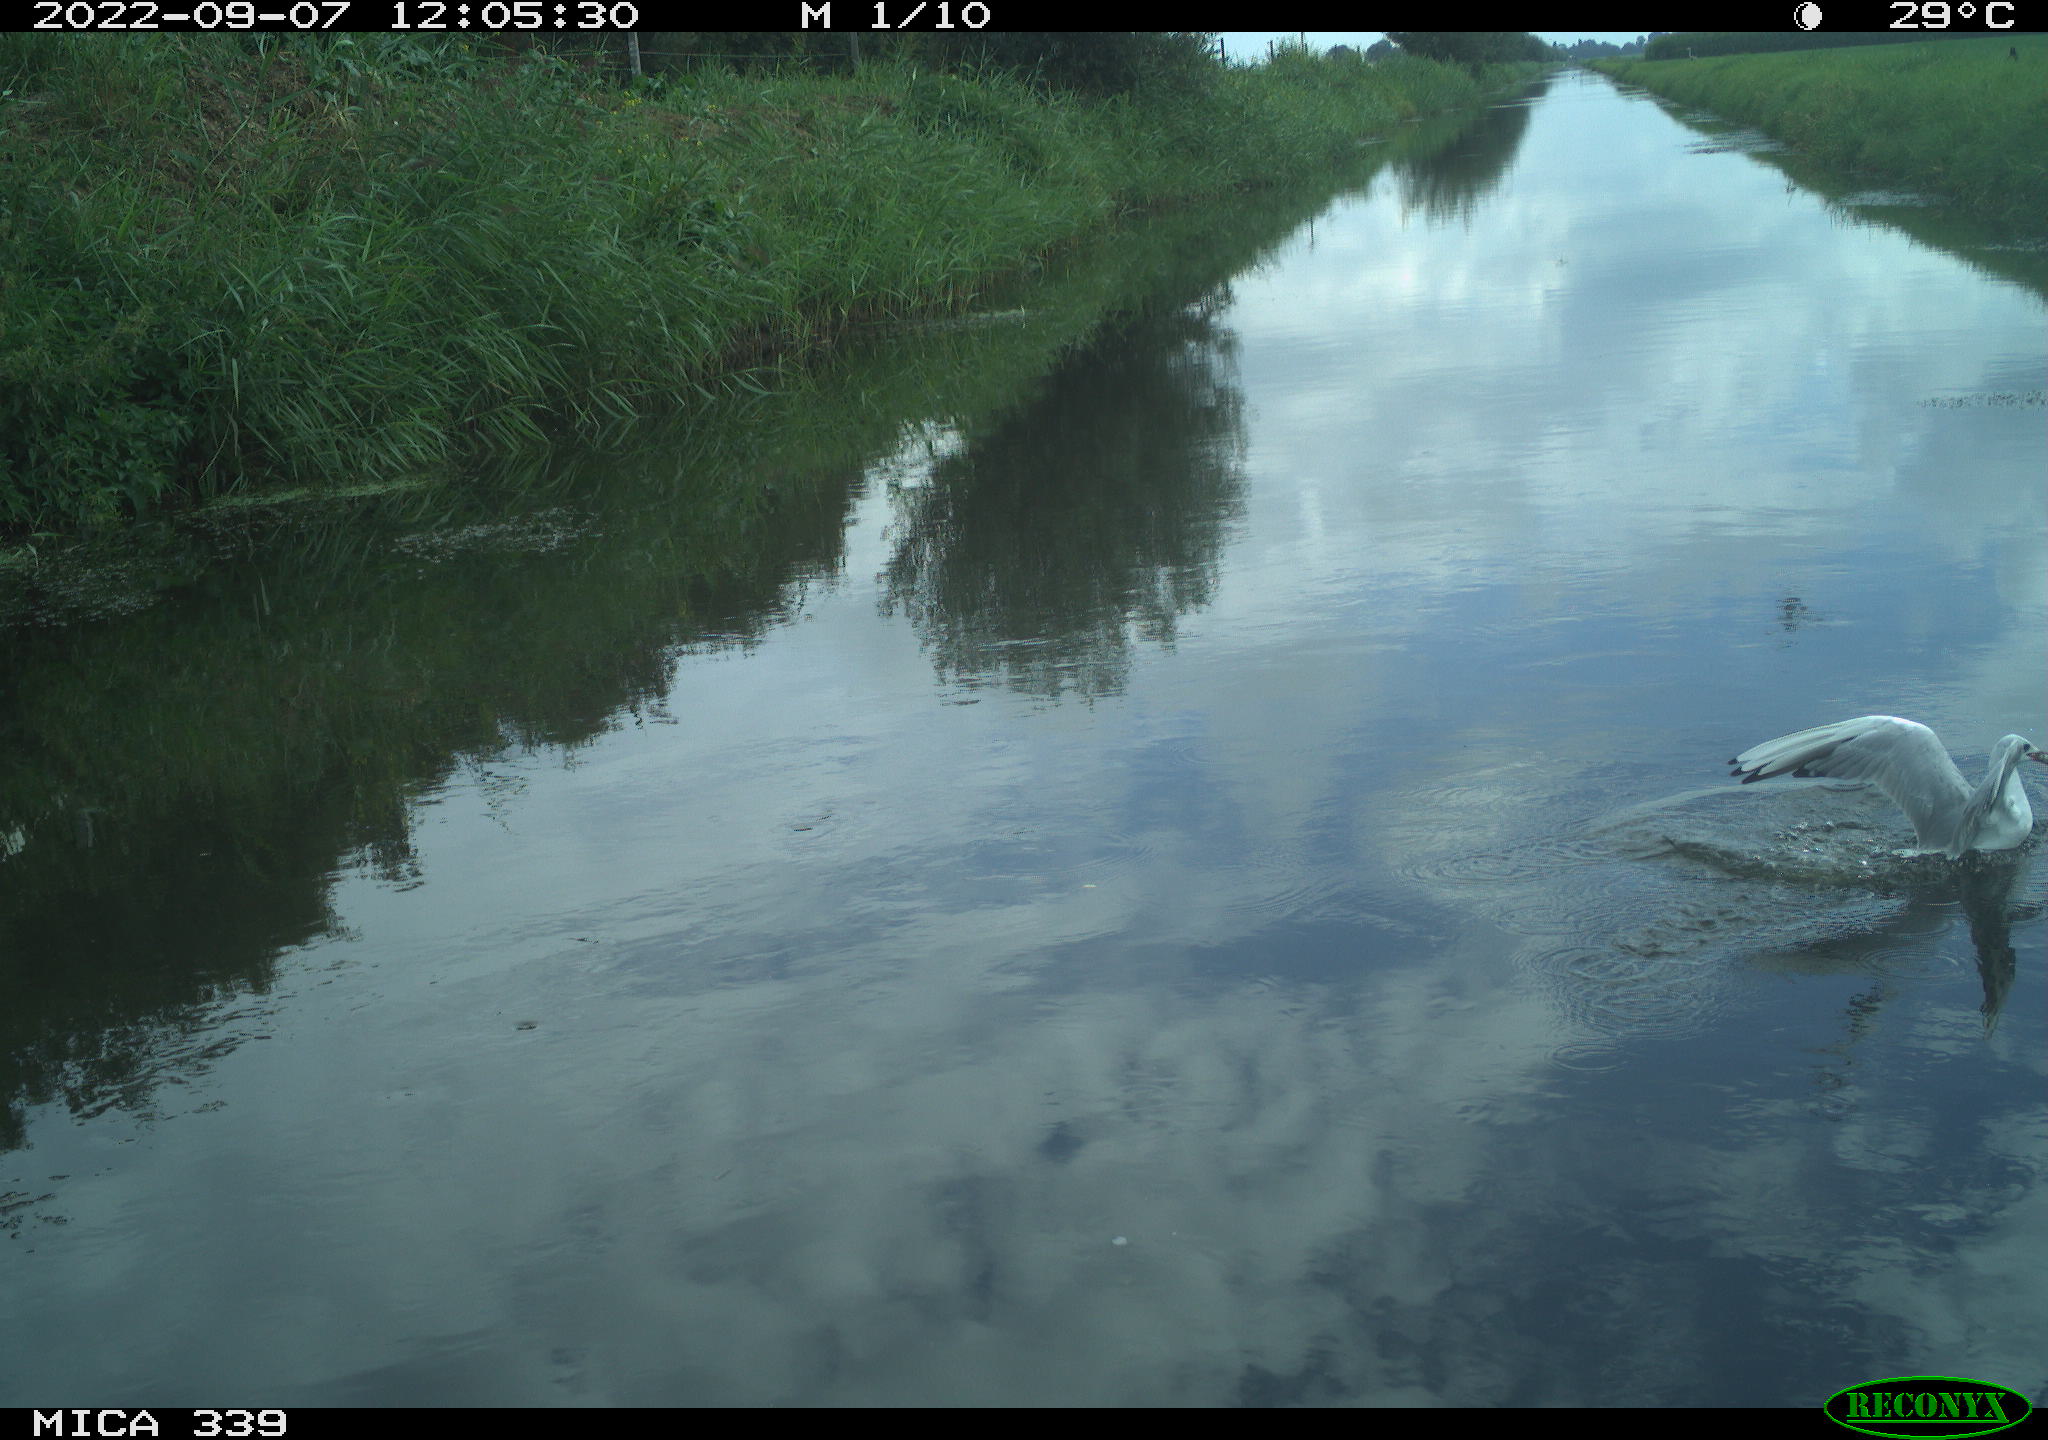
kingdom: Animalia
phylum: Chordata
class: Aves
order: Charadriiformes
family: Laridae
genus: Chroicocephalus
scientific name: Chroicocephalus ridibundus
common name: Black-headed gull
